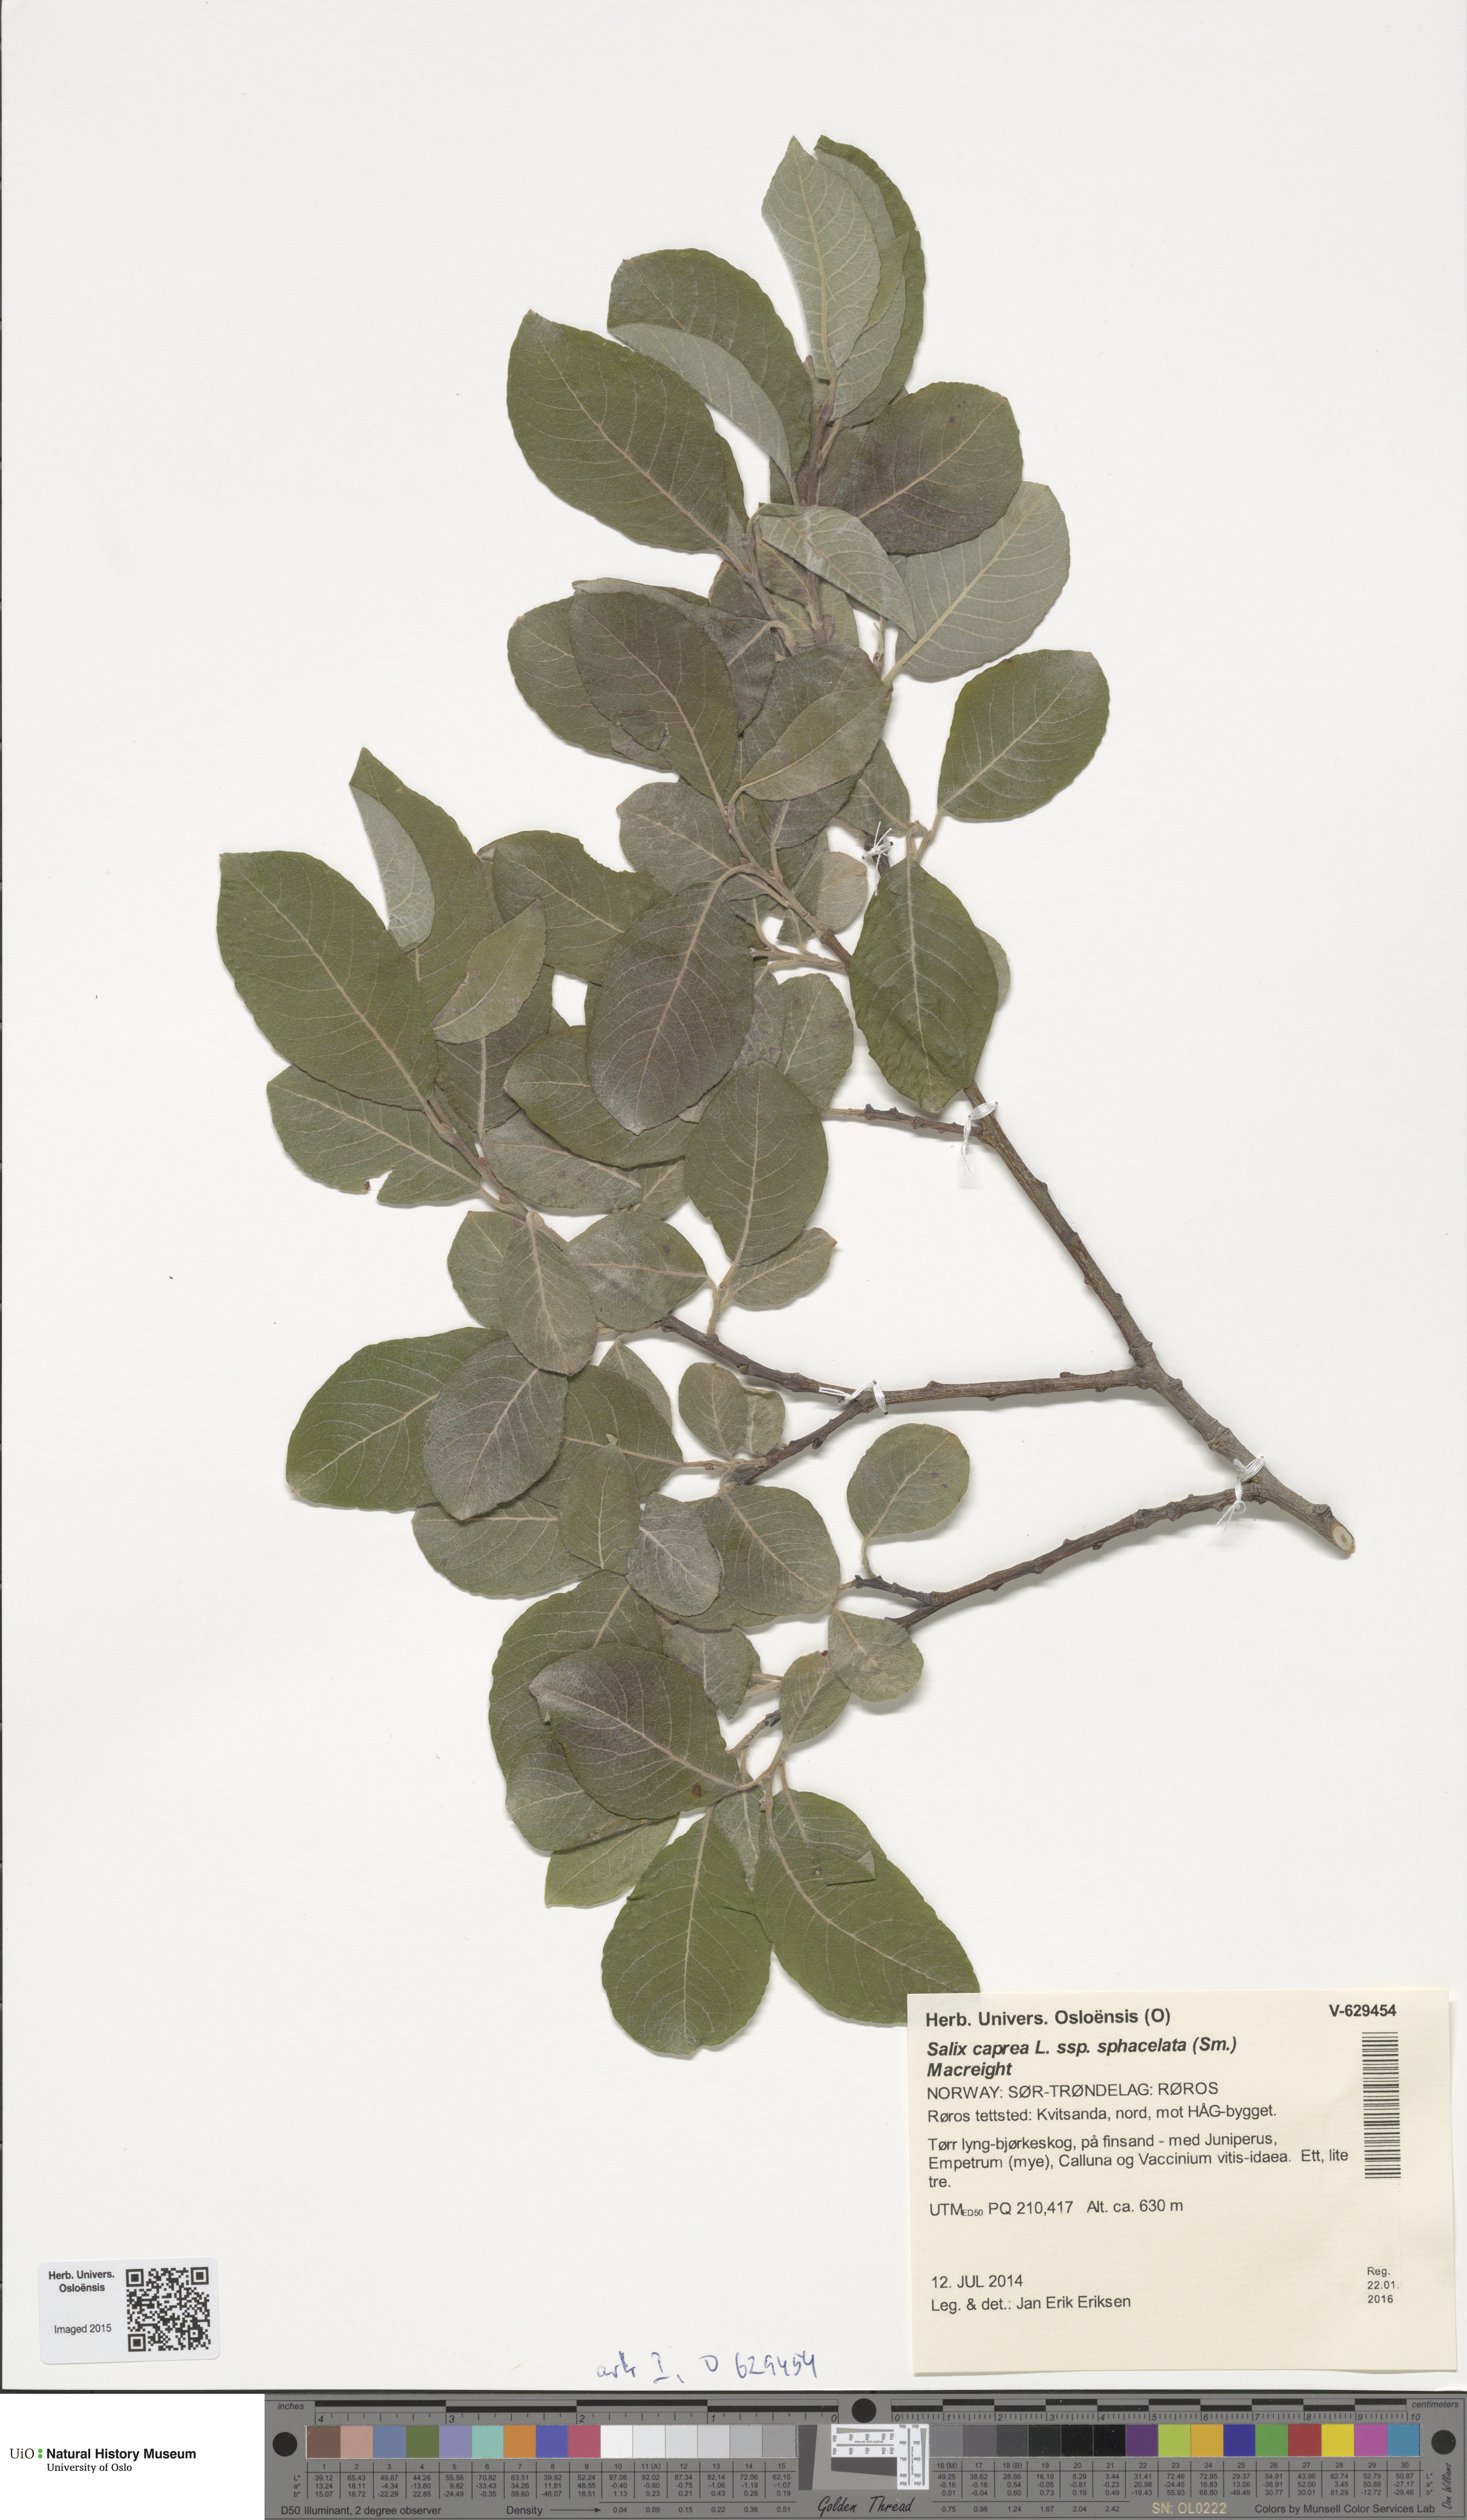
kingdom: Plantae
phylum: Tracheophyta
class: Magnoliopsida
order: Malpighiales
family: Salicaceae
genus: Salix
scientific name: Salix caprea
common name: Goat willow
